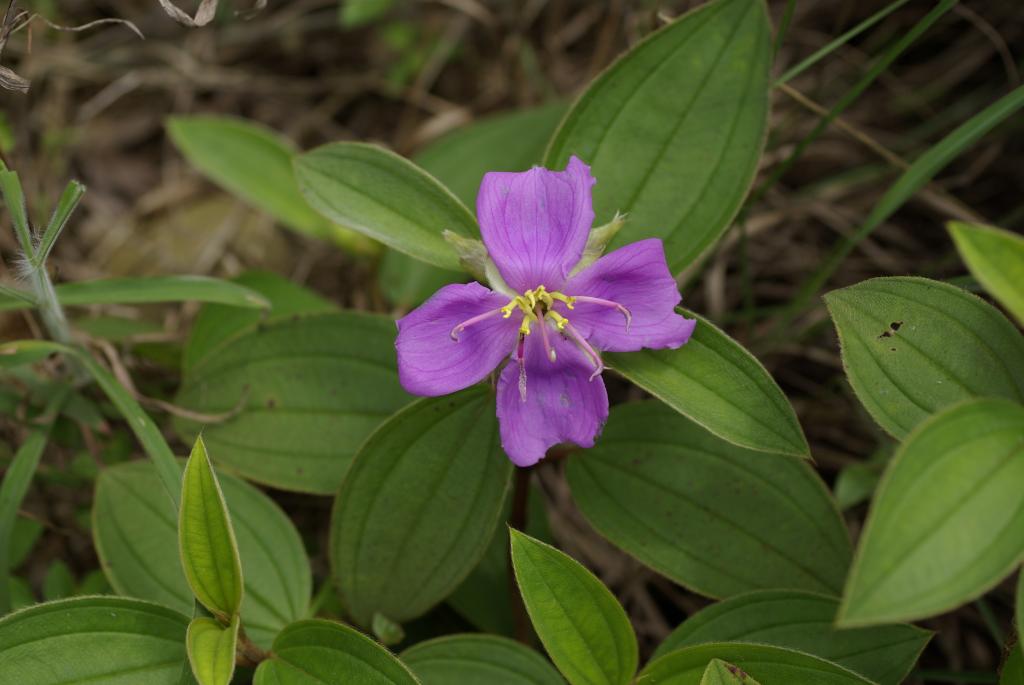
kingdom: Plantae
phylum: Tracheophyta
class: Magnoliopsida
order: Myrtales
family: Melastomataceae
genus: Melastoma
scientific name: Melastoma malabathricum
